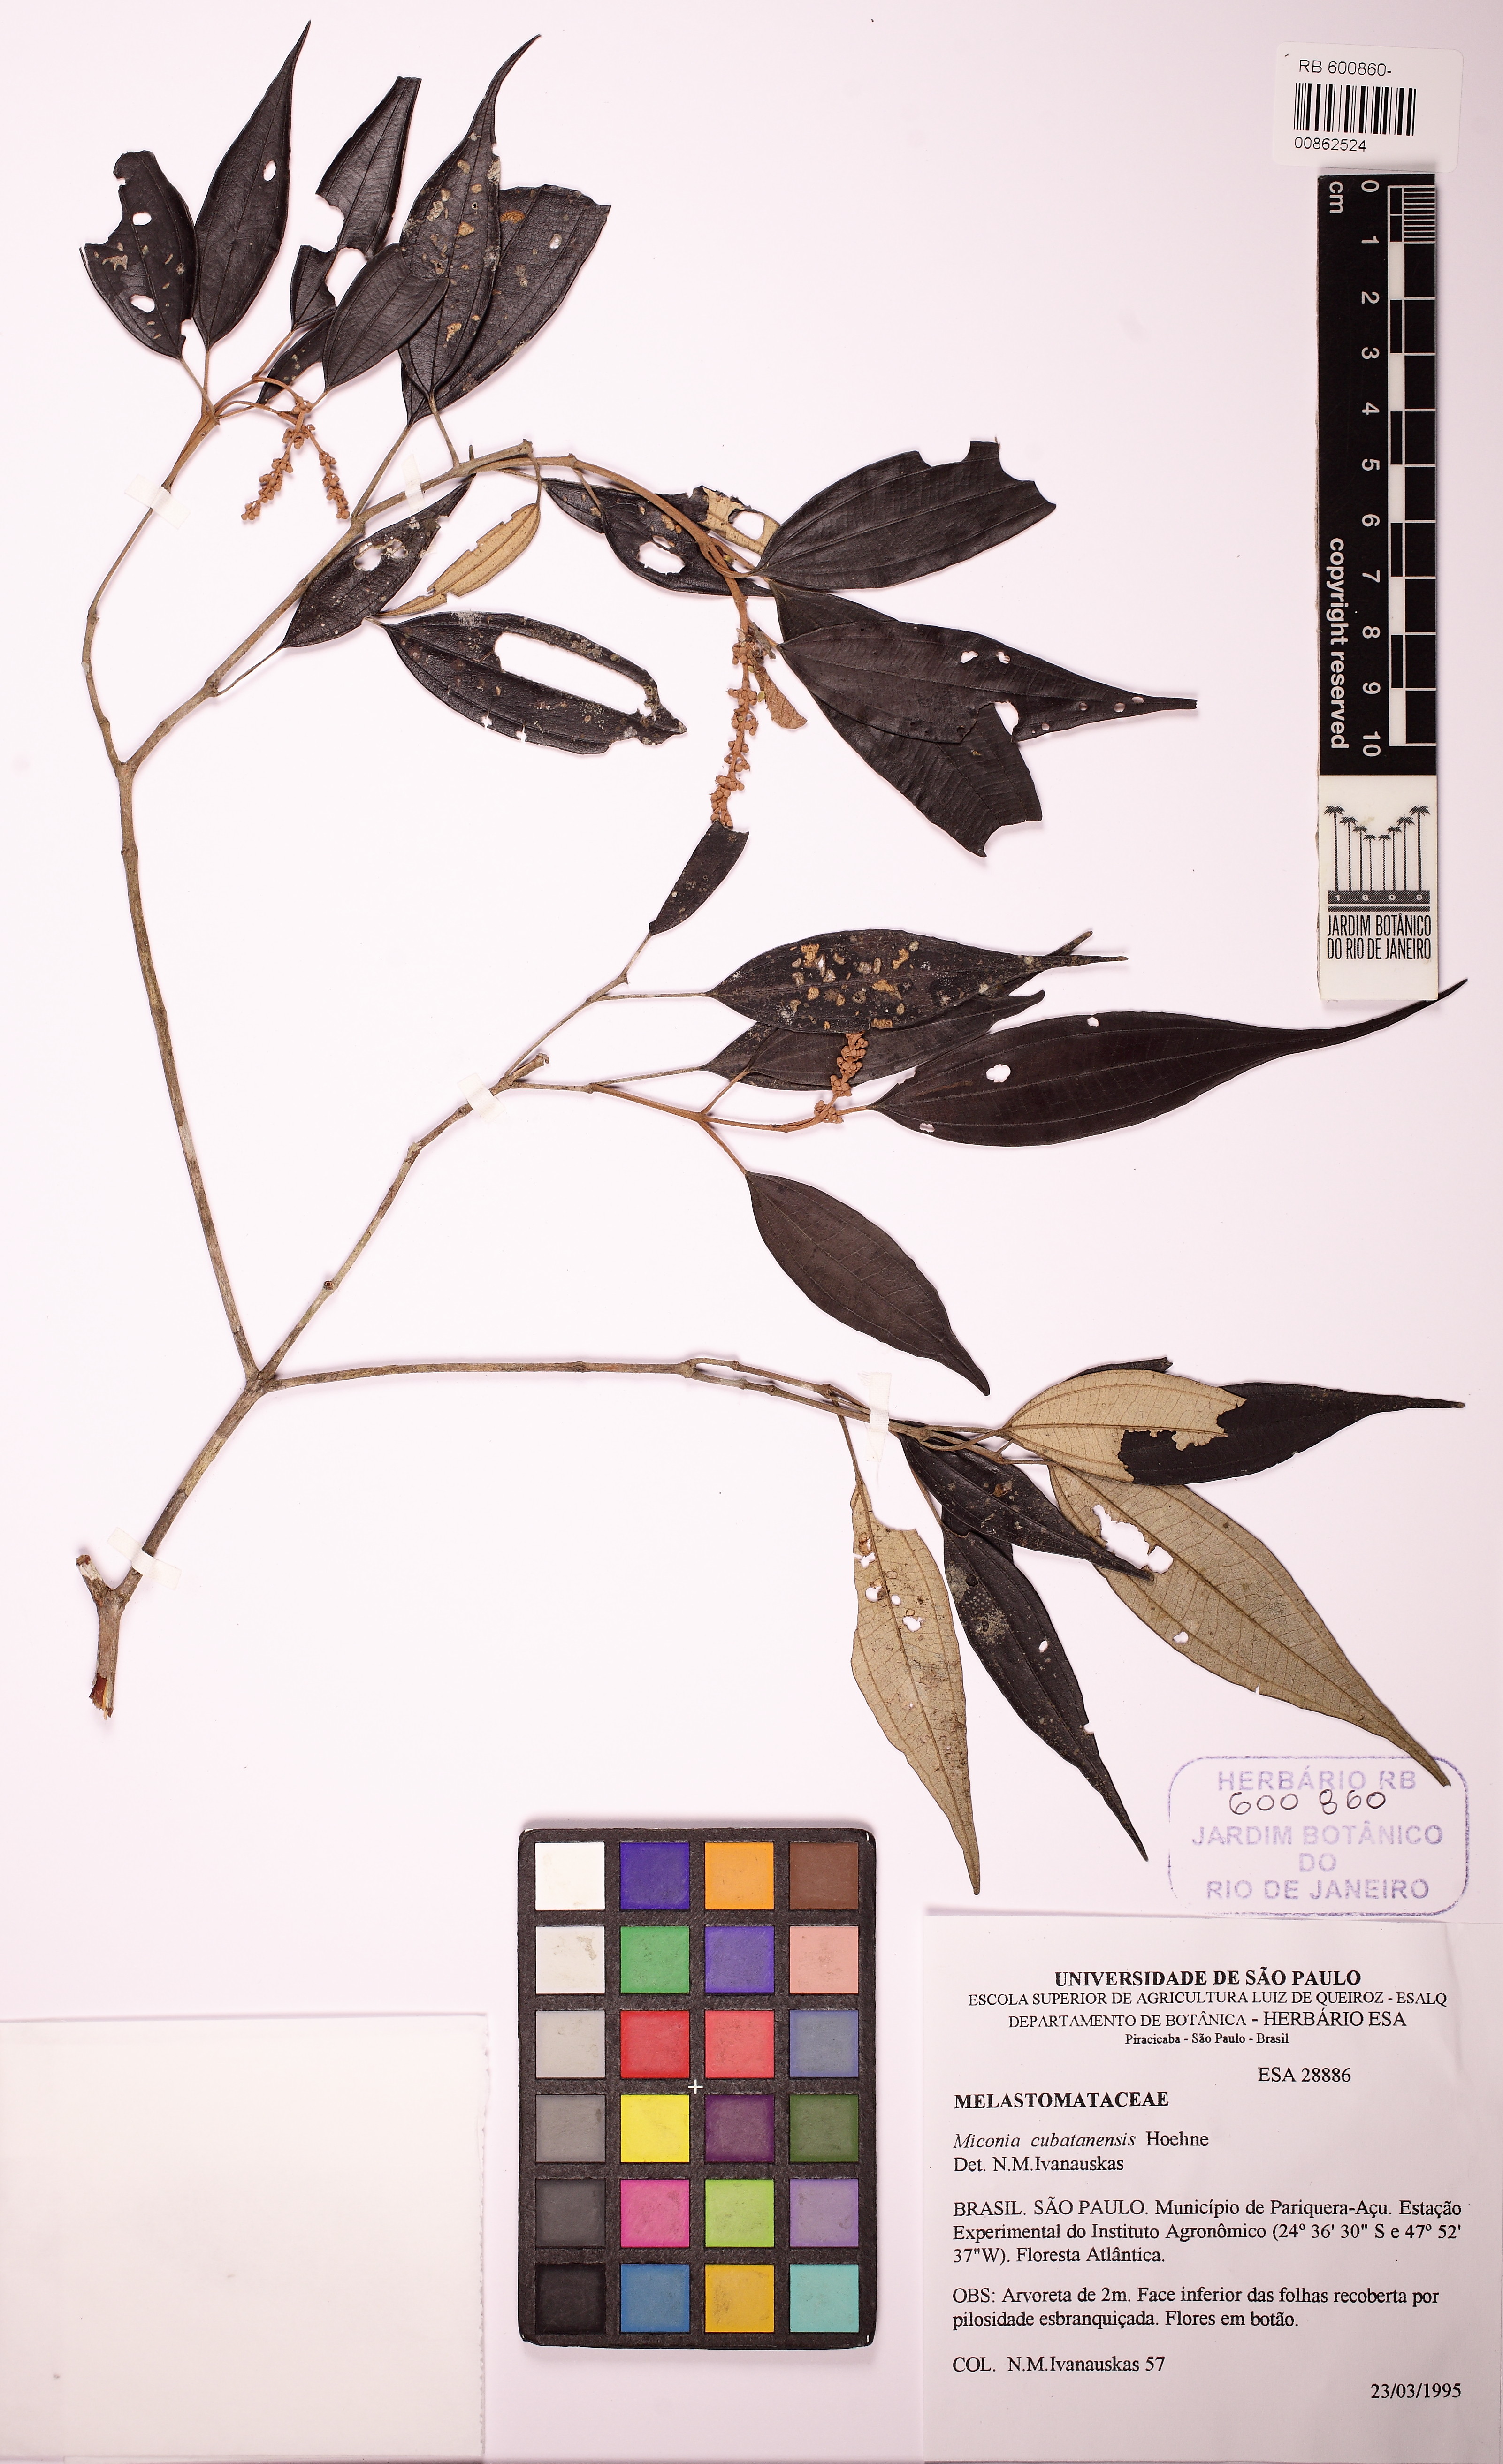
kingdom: Plantae
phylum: Tracheophyta
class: Magnoliopsida
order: Myrtales
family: Melastomataceae
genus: Miconia
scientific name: Miconia cubatanensis
